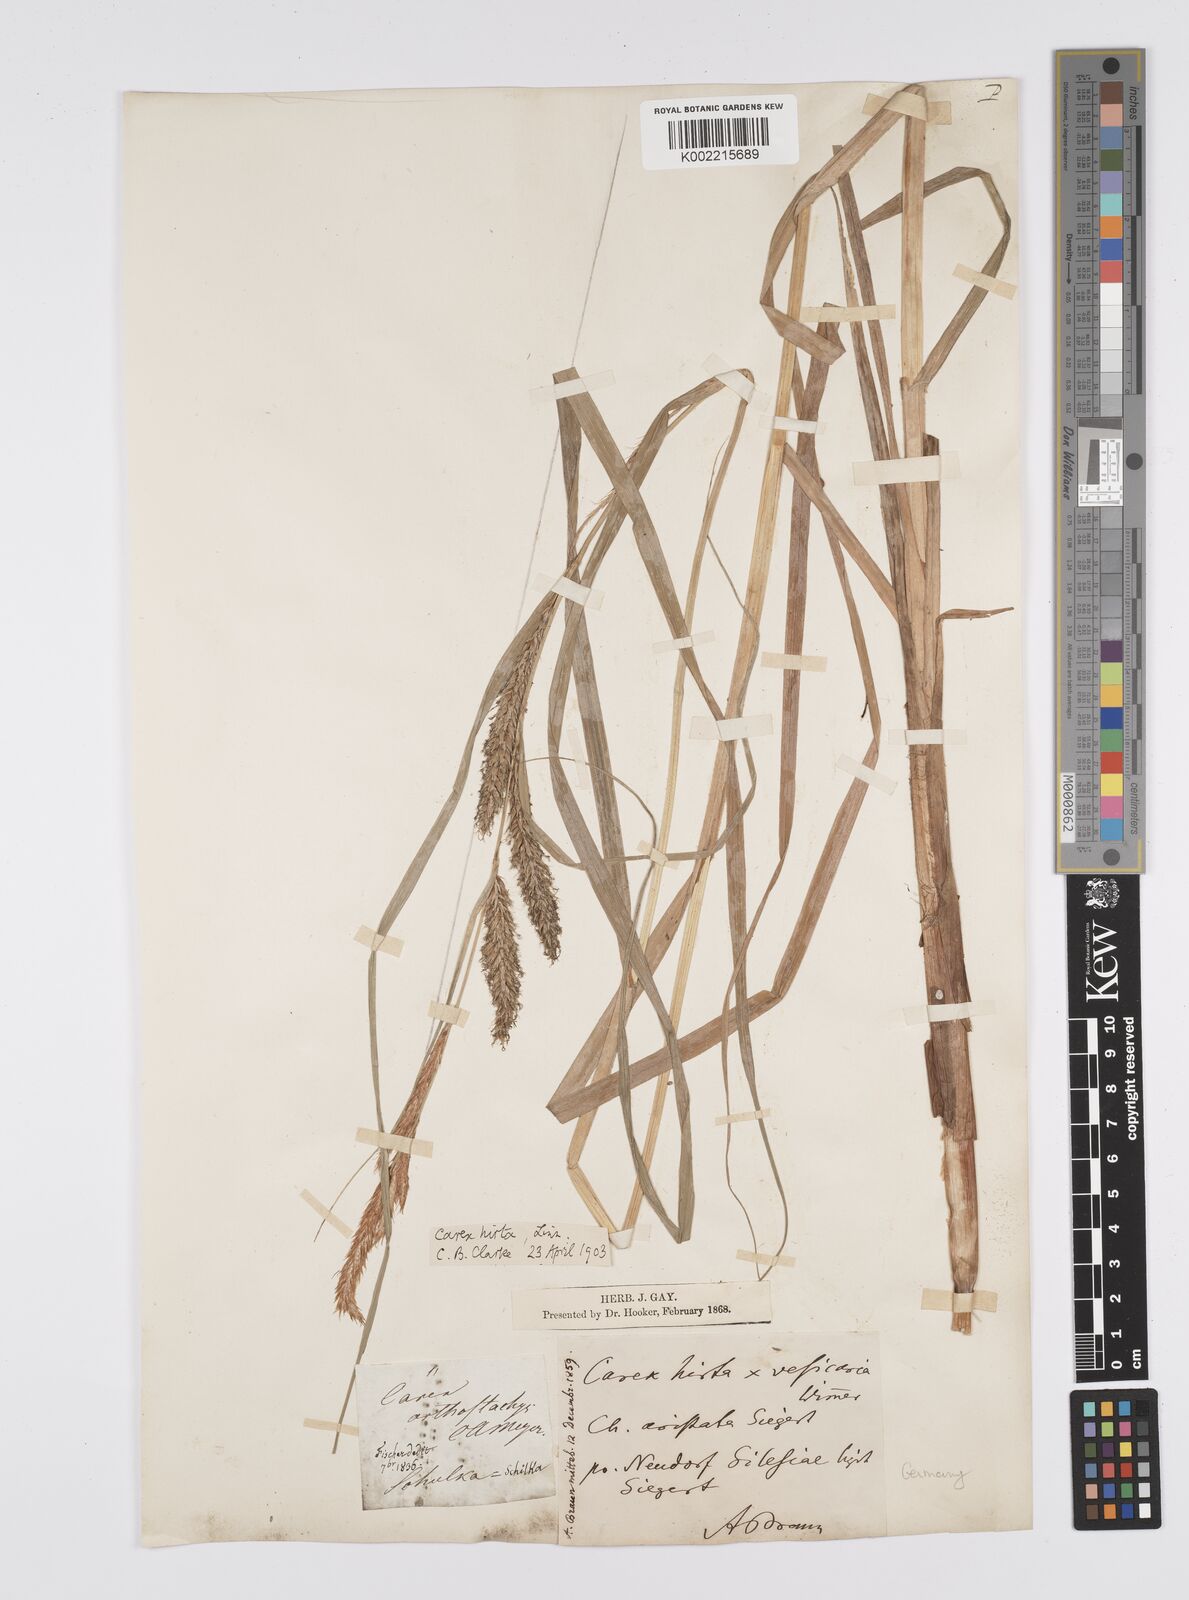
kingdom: Plantae
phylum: Tracheophyta
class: Liliopsida
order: Poales
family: Cyperaceae
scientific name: Cyperaceae
